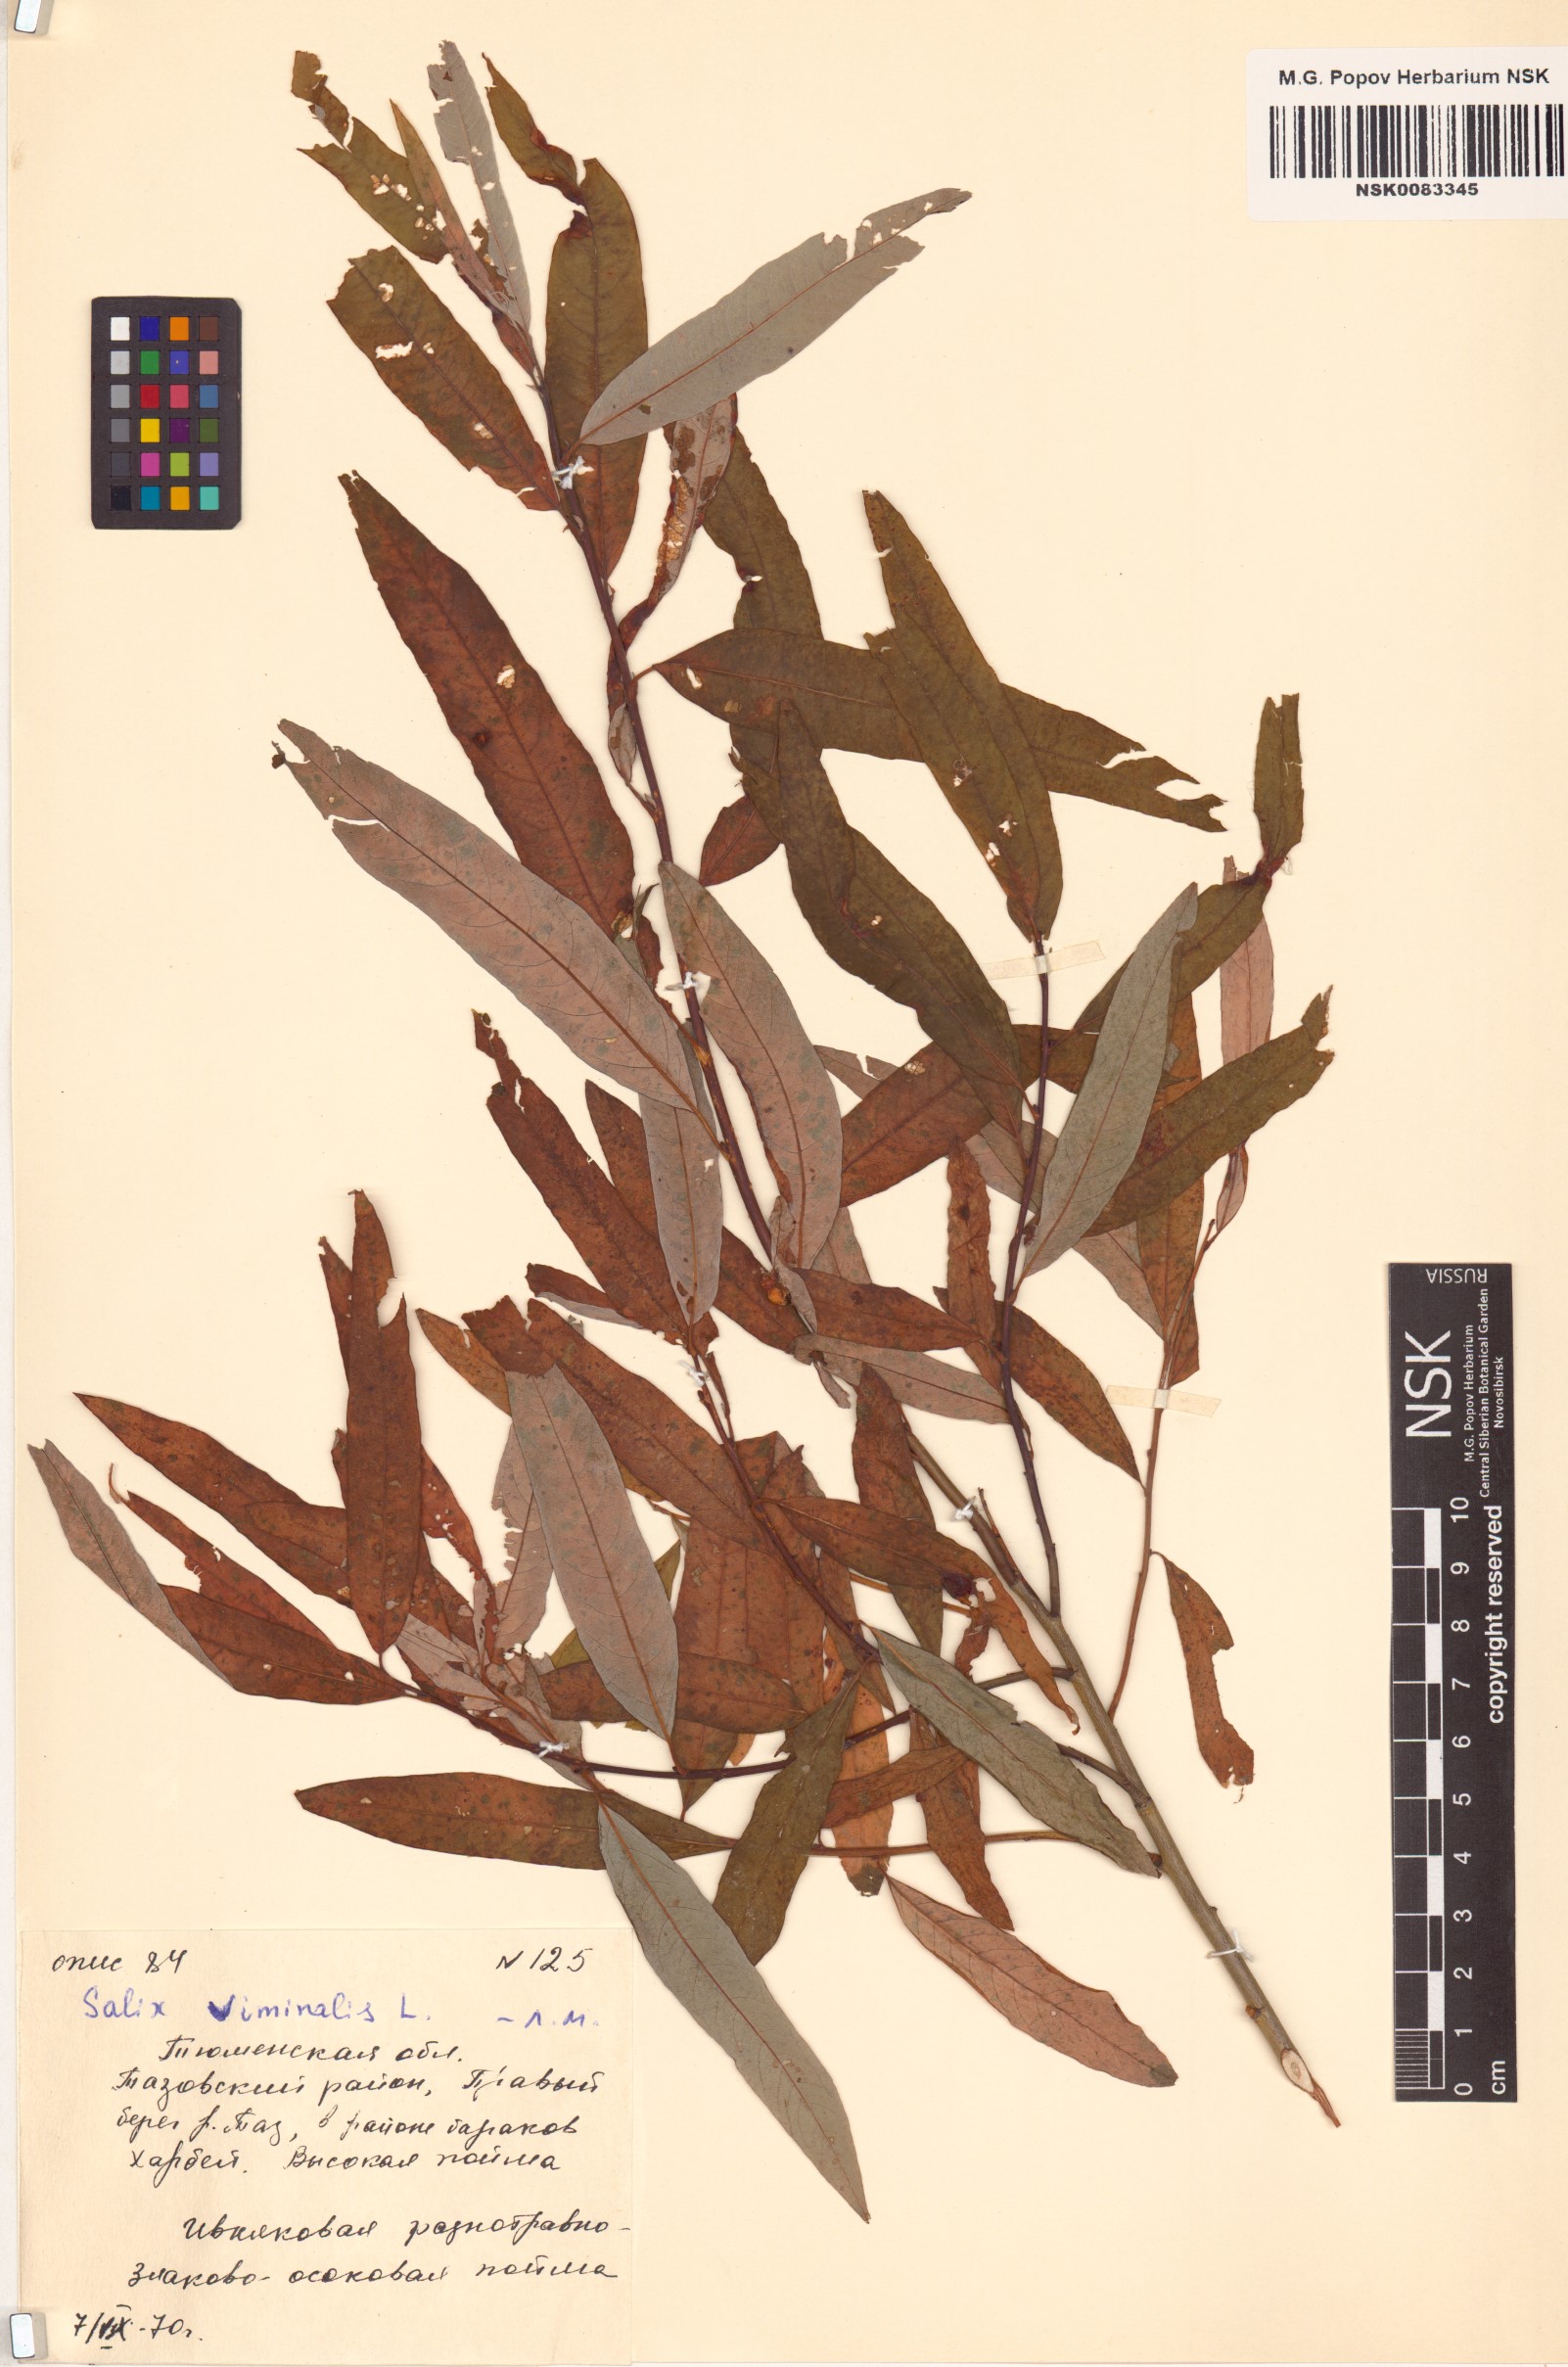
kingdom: Plantae
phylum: Tracheophyta
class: Magnoliopsida
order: Malpighiales
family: Salicaceae
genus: Salix
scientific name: Salix viminalis
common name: Osier
